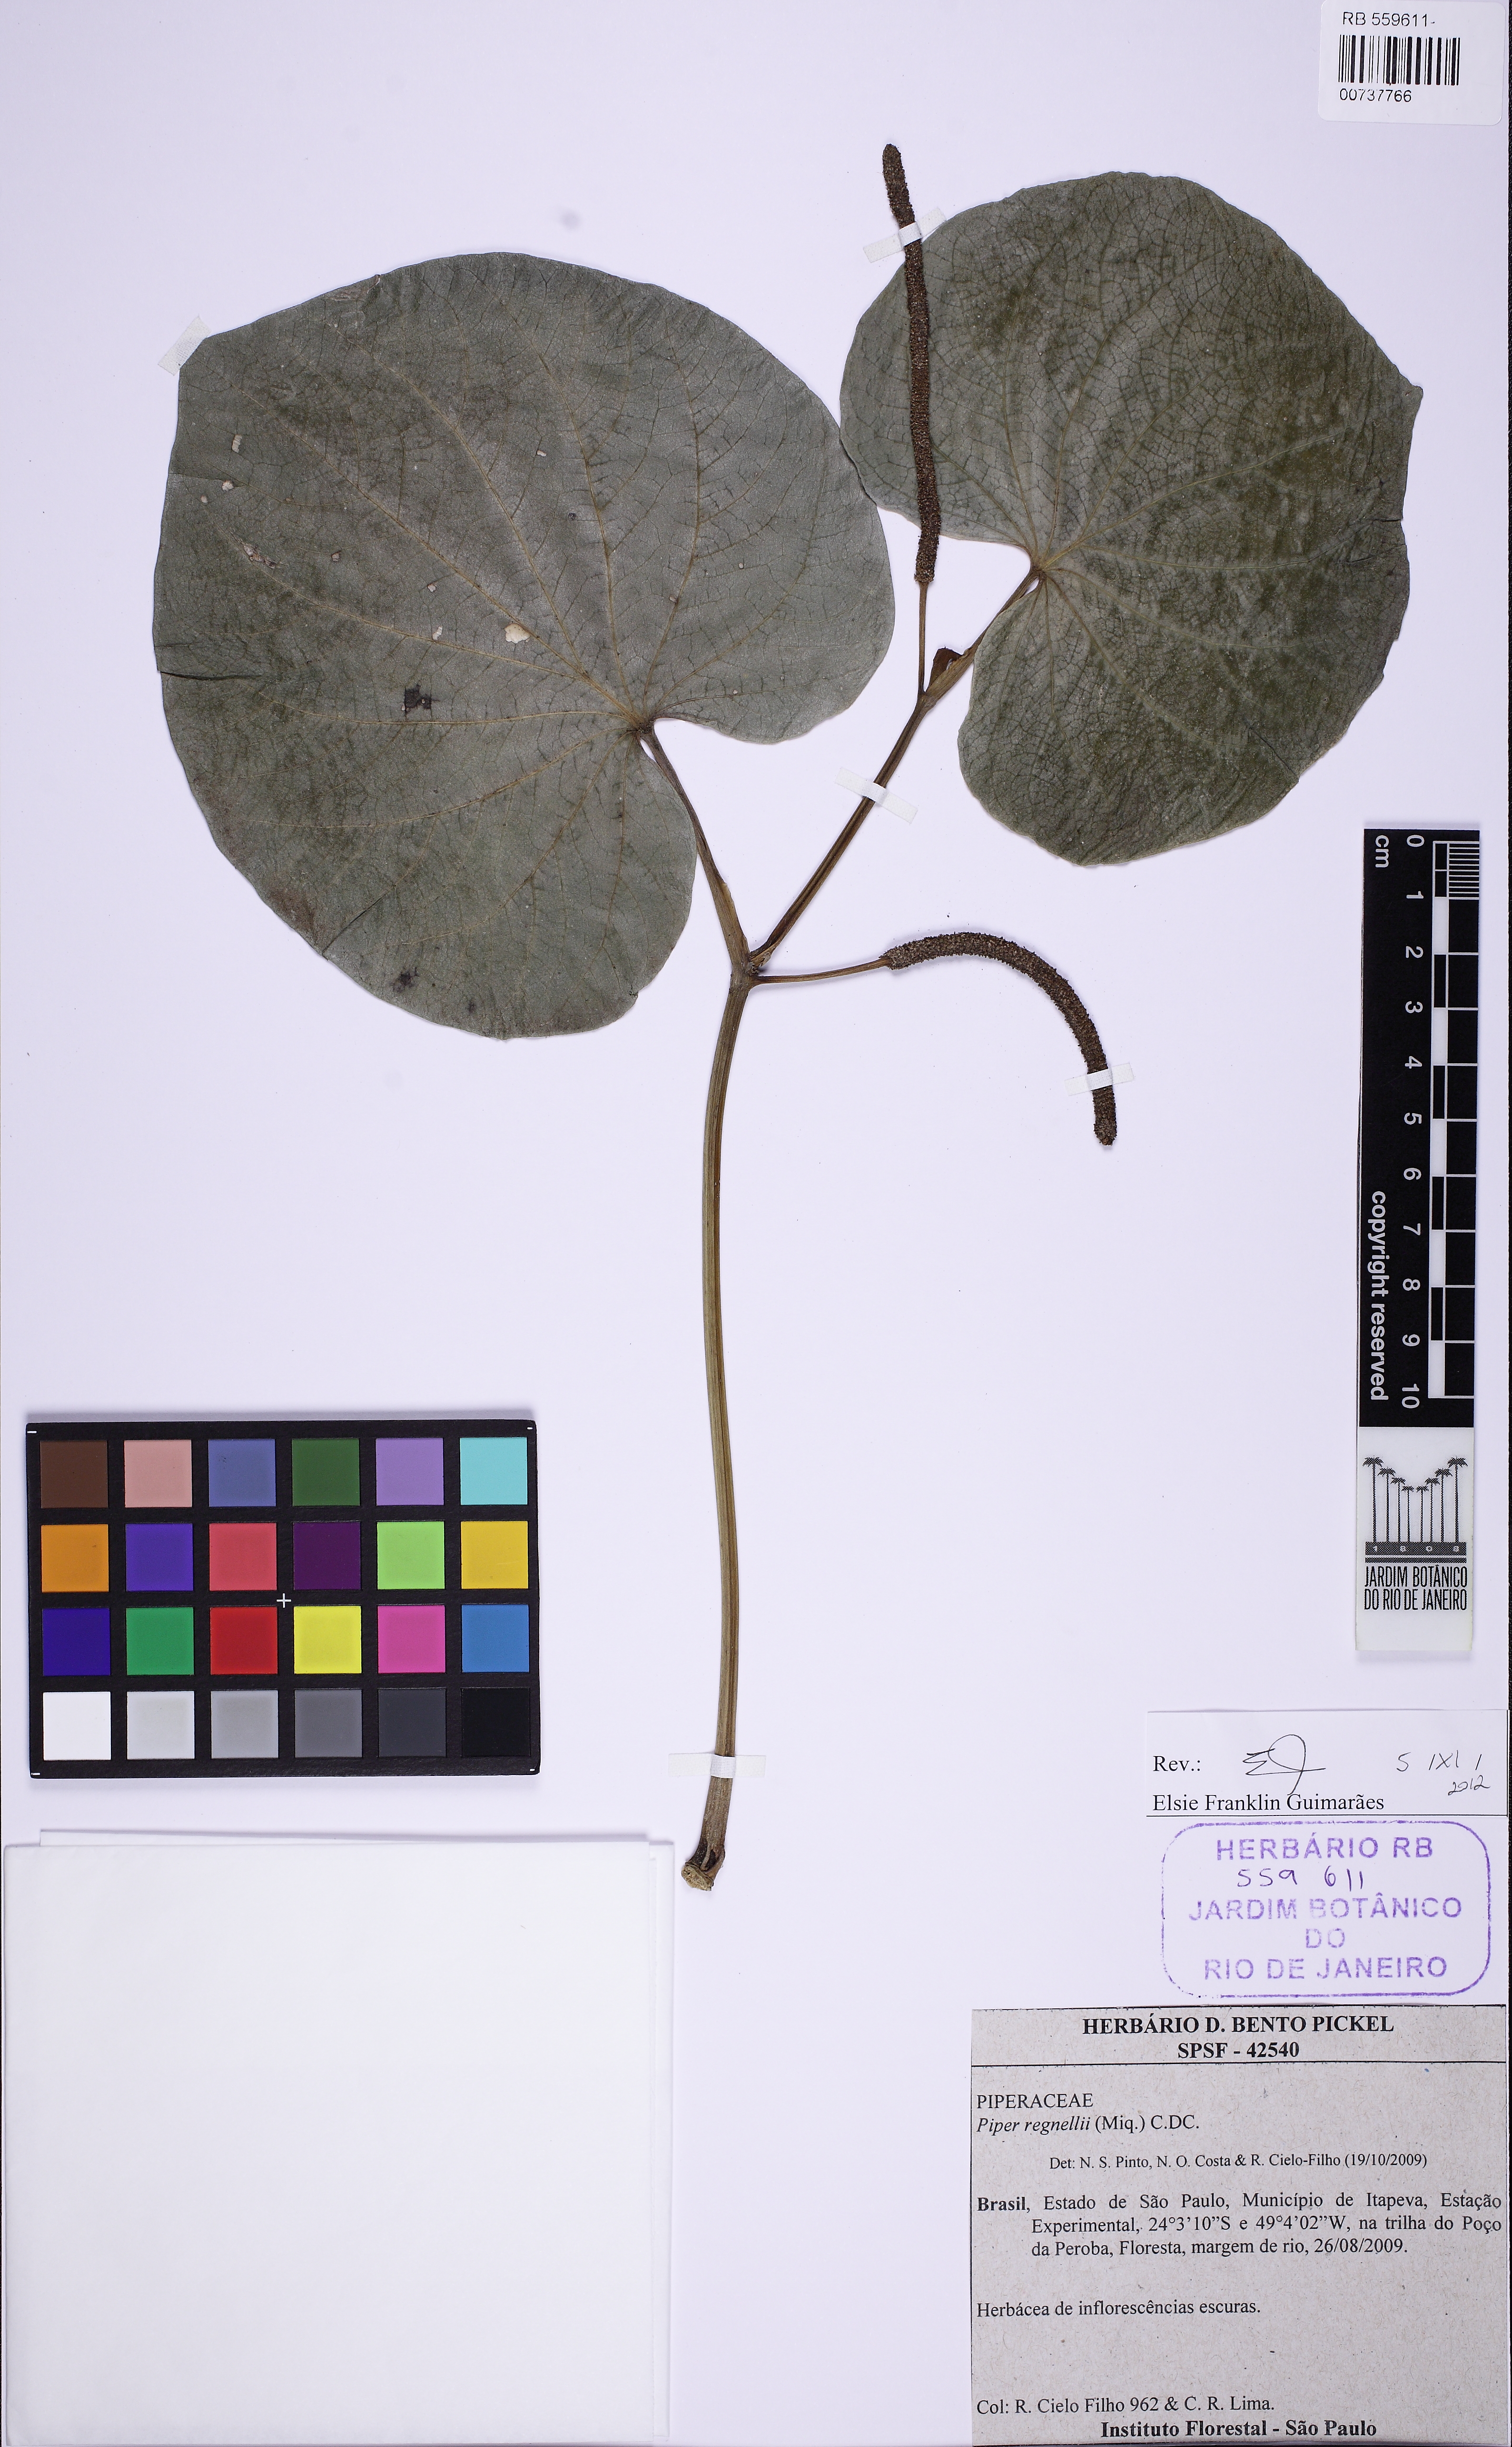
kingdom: Plantae
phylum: Tracheophyta
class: Magnoliopsida
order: Piperales
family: Piperaceae
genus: Piper
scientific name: Piper regnellii
